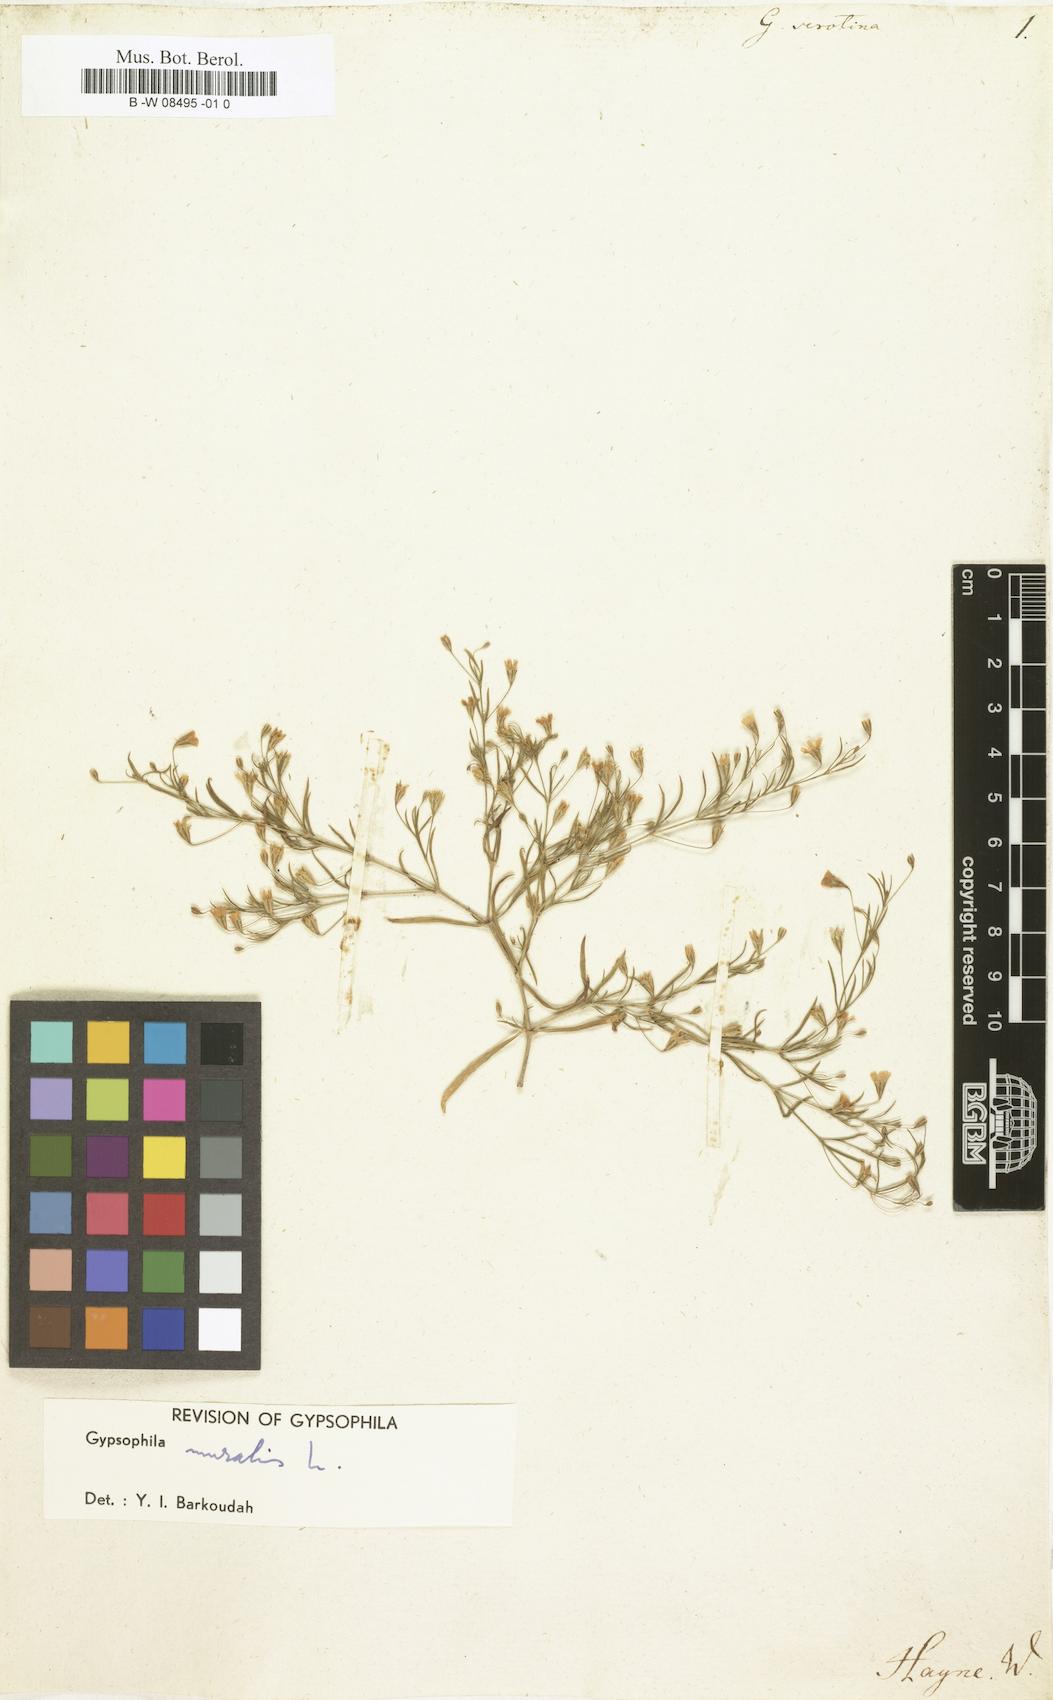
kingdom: Plantae
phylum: Tracheophyta
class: Magnoliopsida
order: Caryophyllales
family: Caryophyllaceae
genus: Psammophiliella
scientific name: Psammophiliella muralis
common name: Cushion baby's-breath
